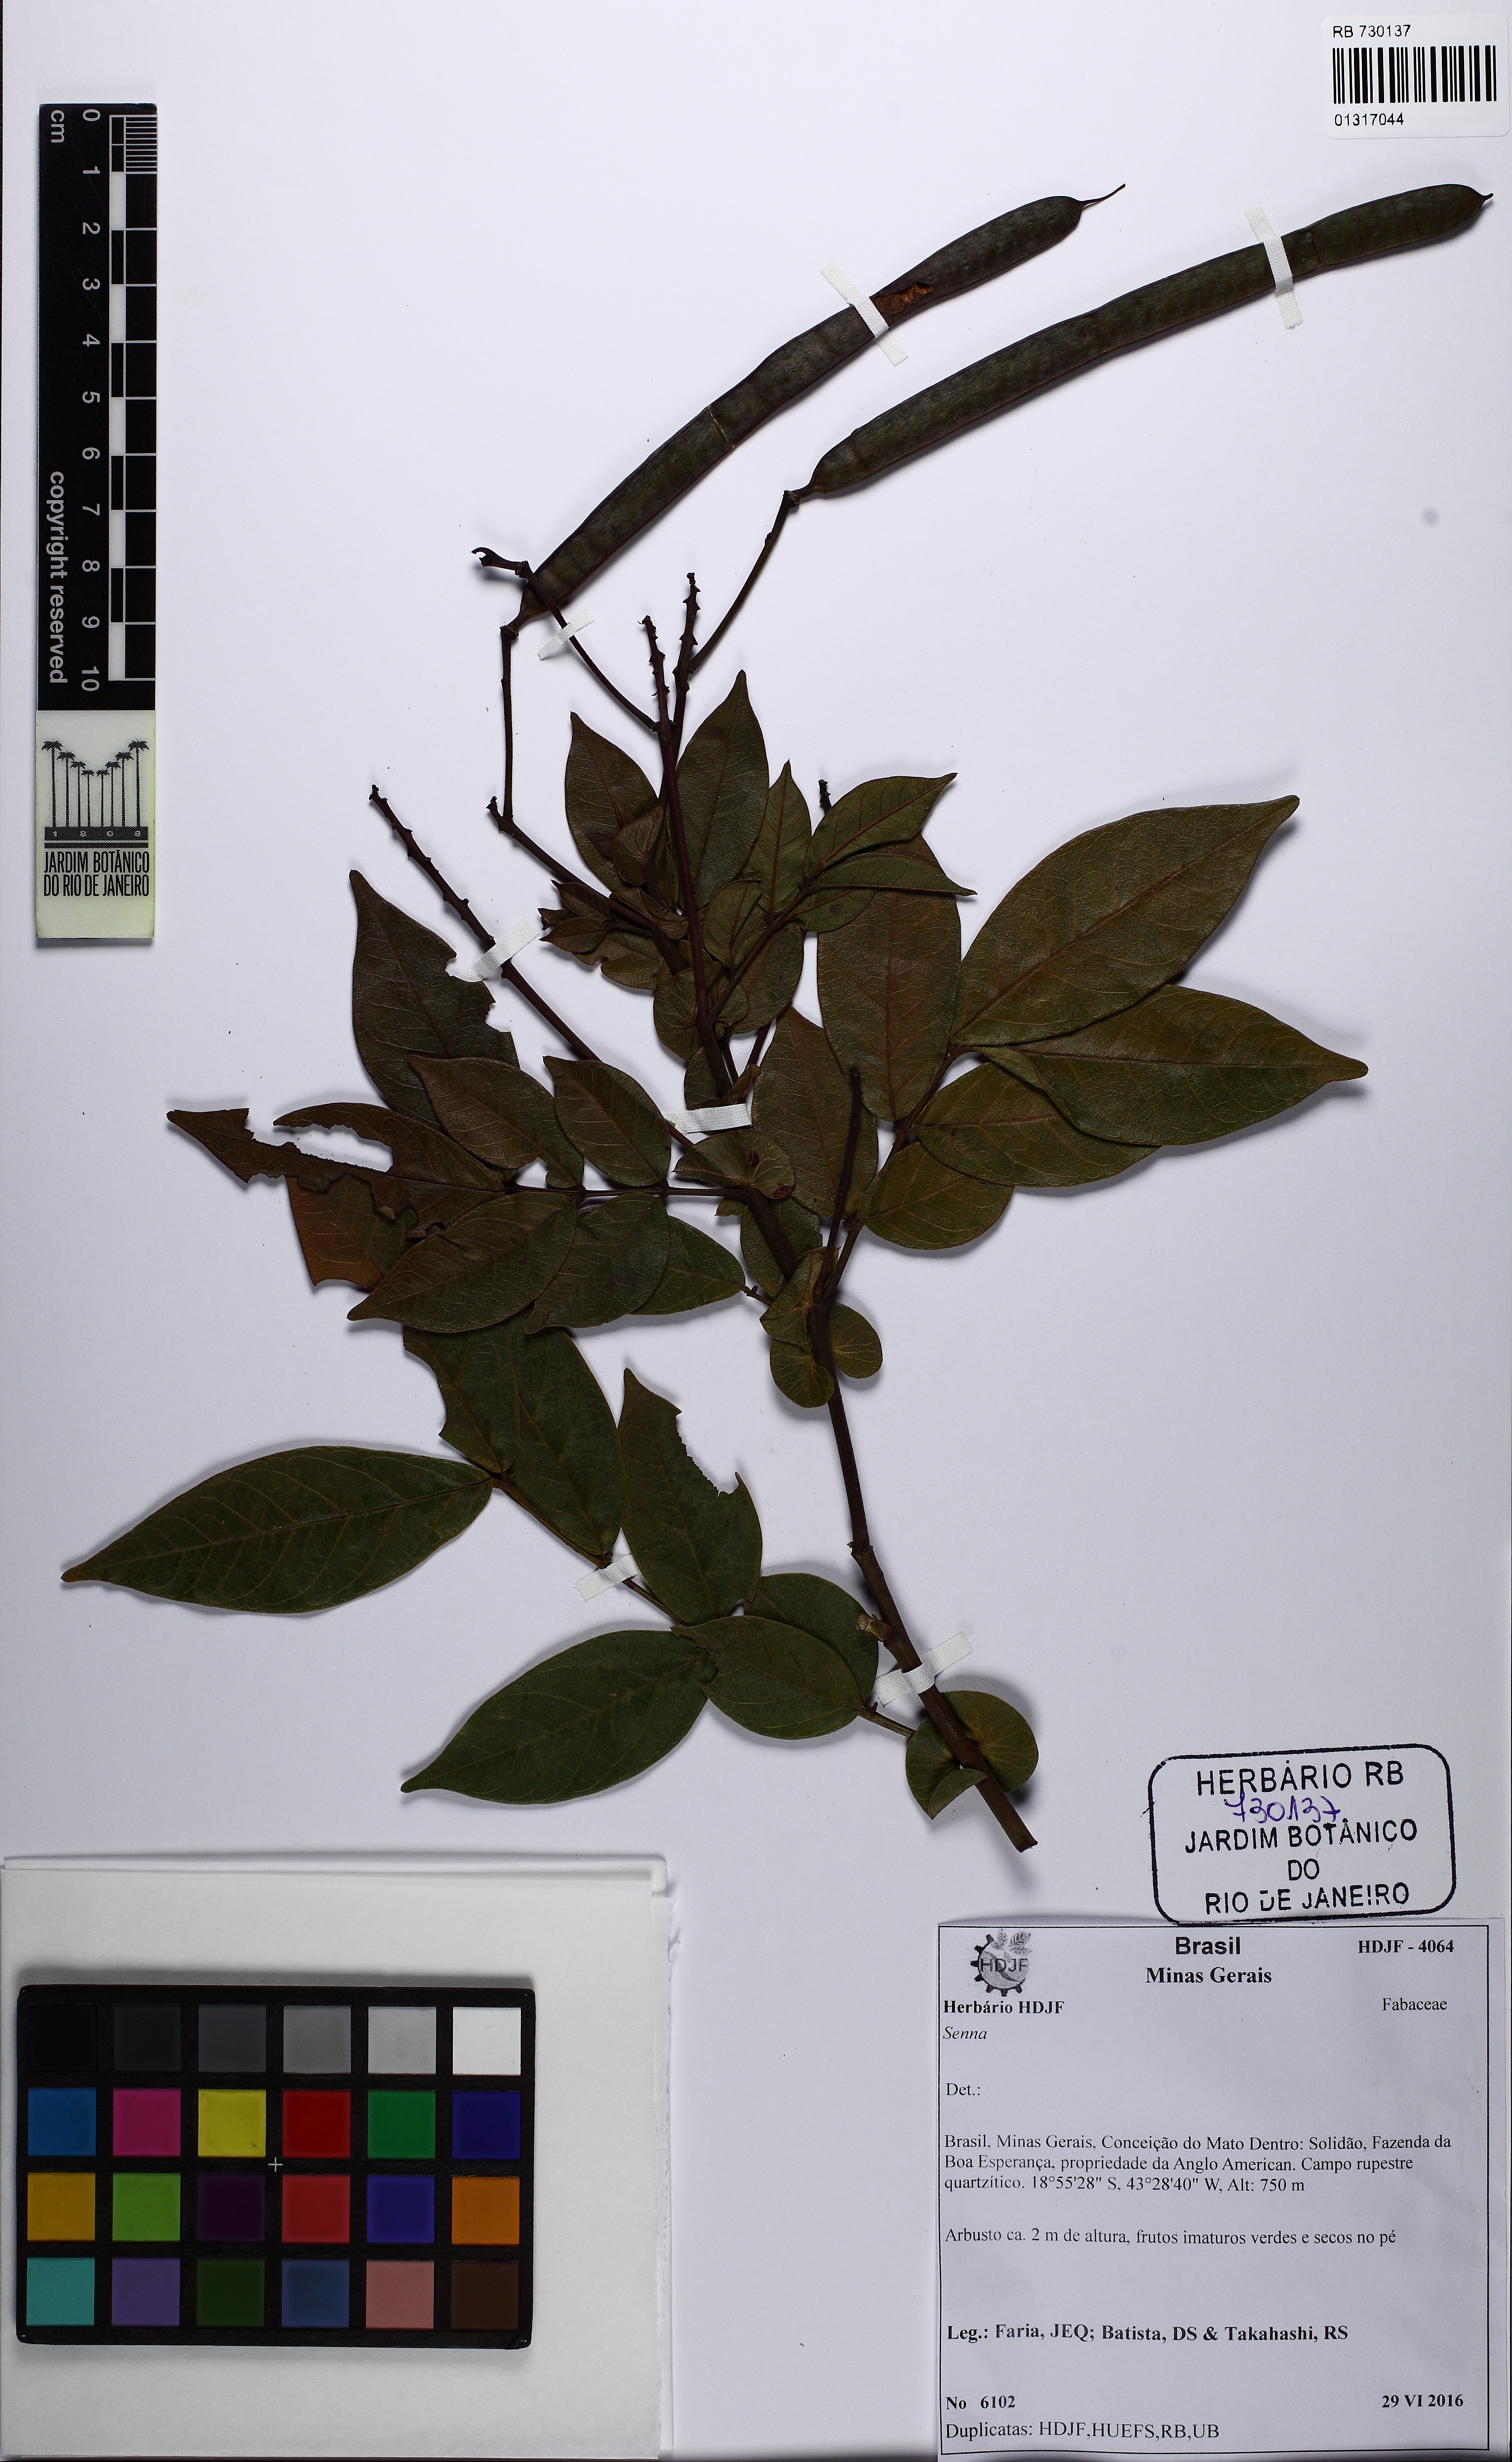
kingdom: Plantae
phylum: Tracheophyta
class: Magnoliopsida
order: Fabales
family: Fabaceae
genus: Senna
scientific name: Senna reniformis
